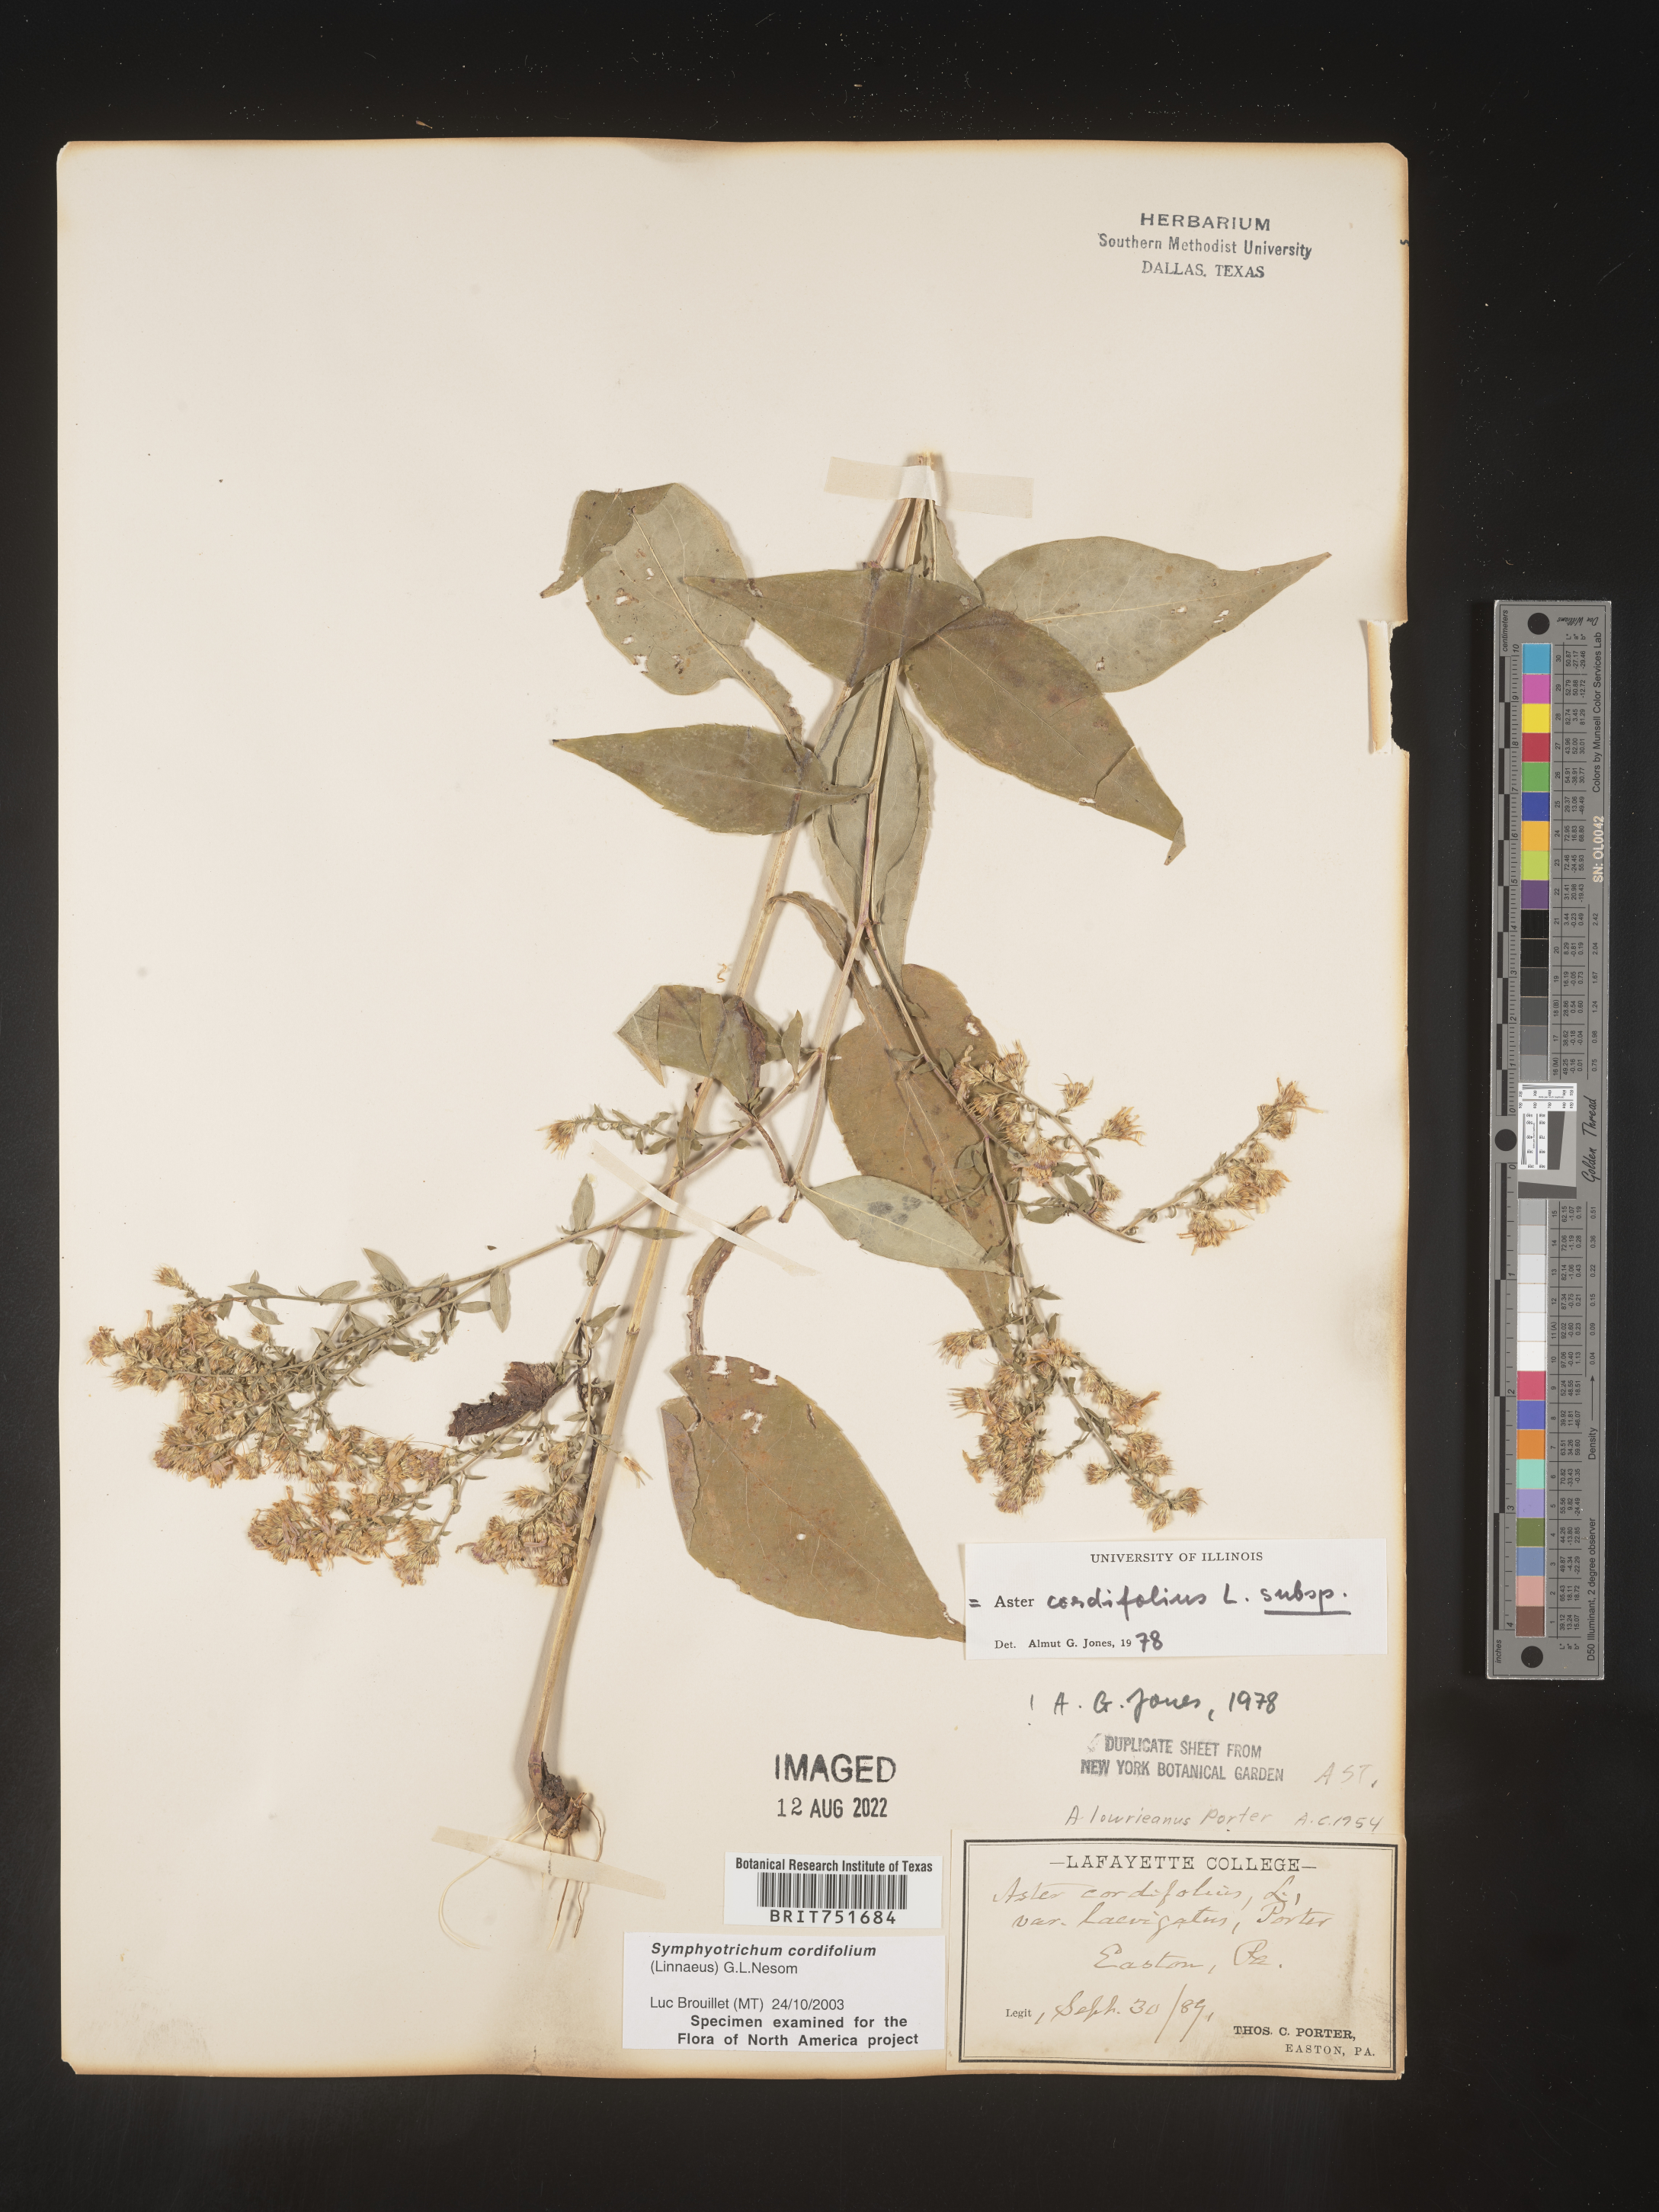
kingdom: Plantae
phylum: Tracheophyta
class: Magnoliopsida
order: Asterales
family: Asteraceae
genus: Symphyotrichum
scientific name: Symphyotrichum cordifolium
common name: Beeweed
